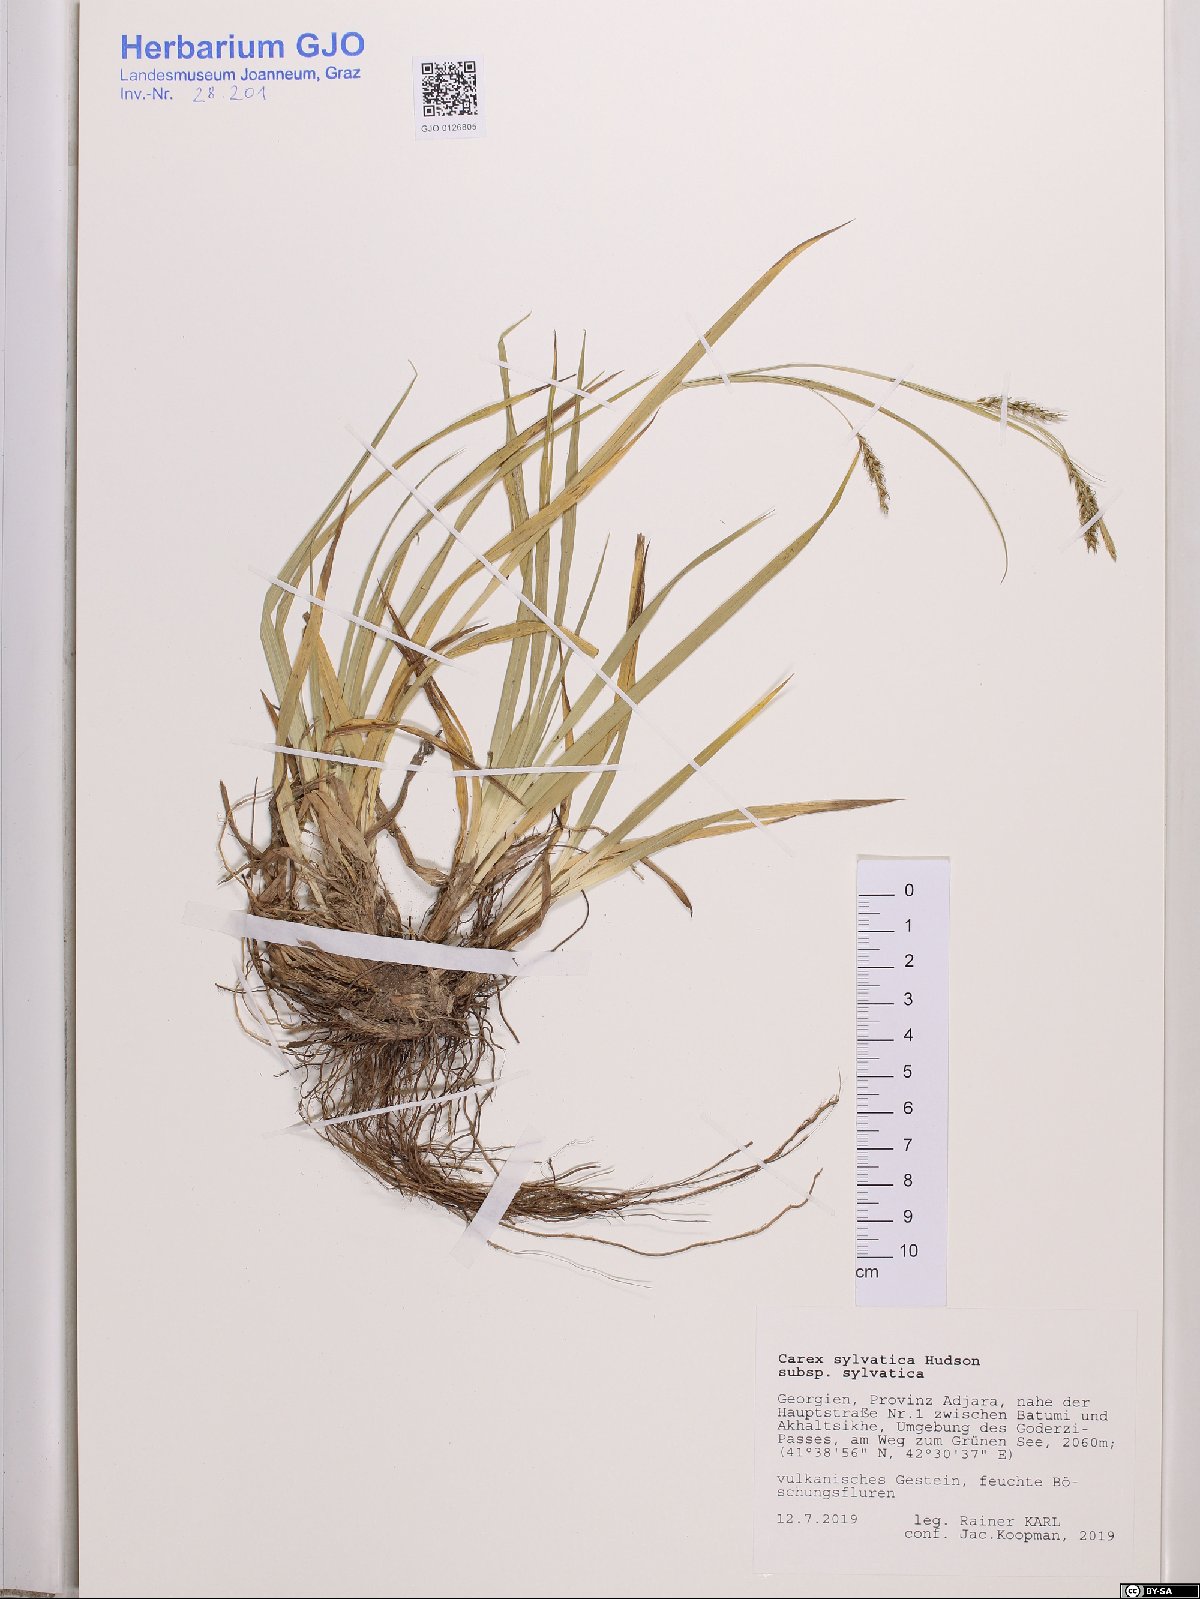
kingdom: Plantae
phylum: Tracheophyta
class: Liliopsida
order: Poales
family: Cyperaceae
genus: Carex
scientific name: Carex sylvatica
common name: Wood-sedge
